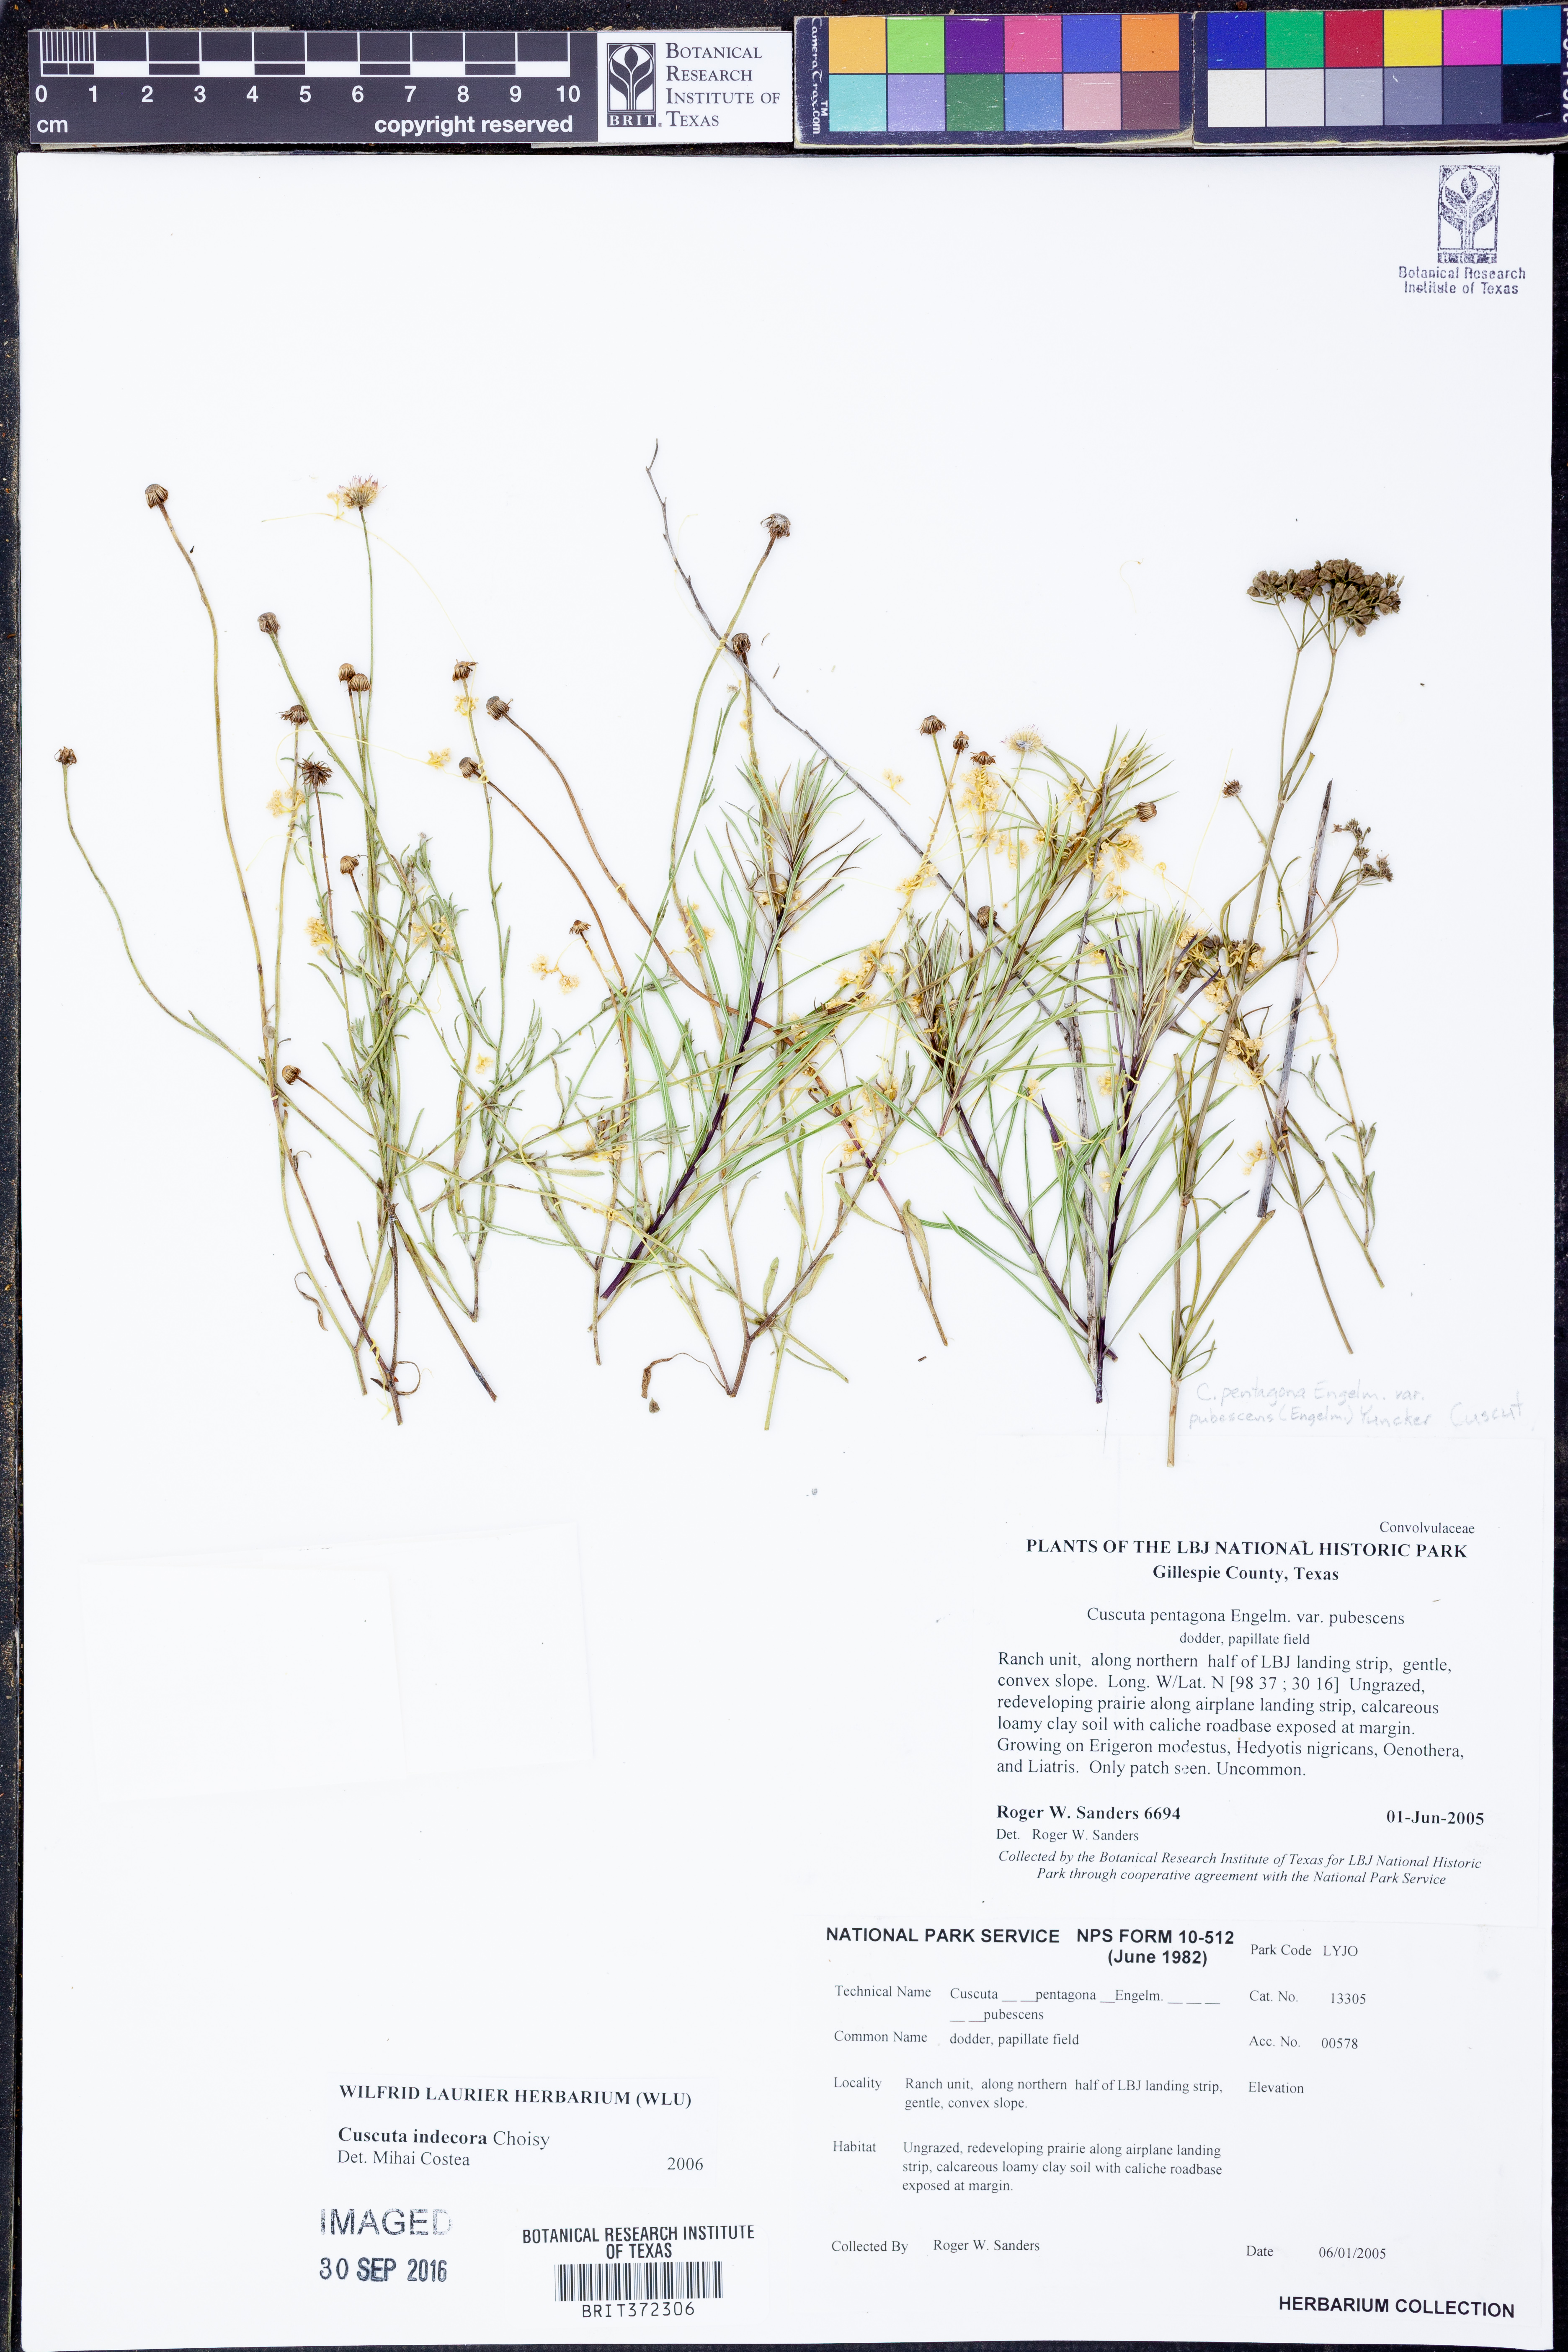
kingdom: Plantae
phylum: Tracheophyta
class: Magnoliopsida
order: Solanales
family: Convolvulaceae
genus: Cuscuta
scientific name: Cuscuta glabrior
